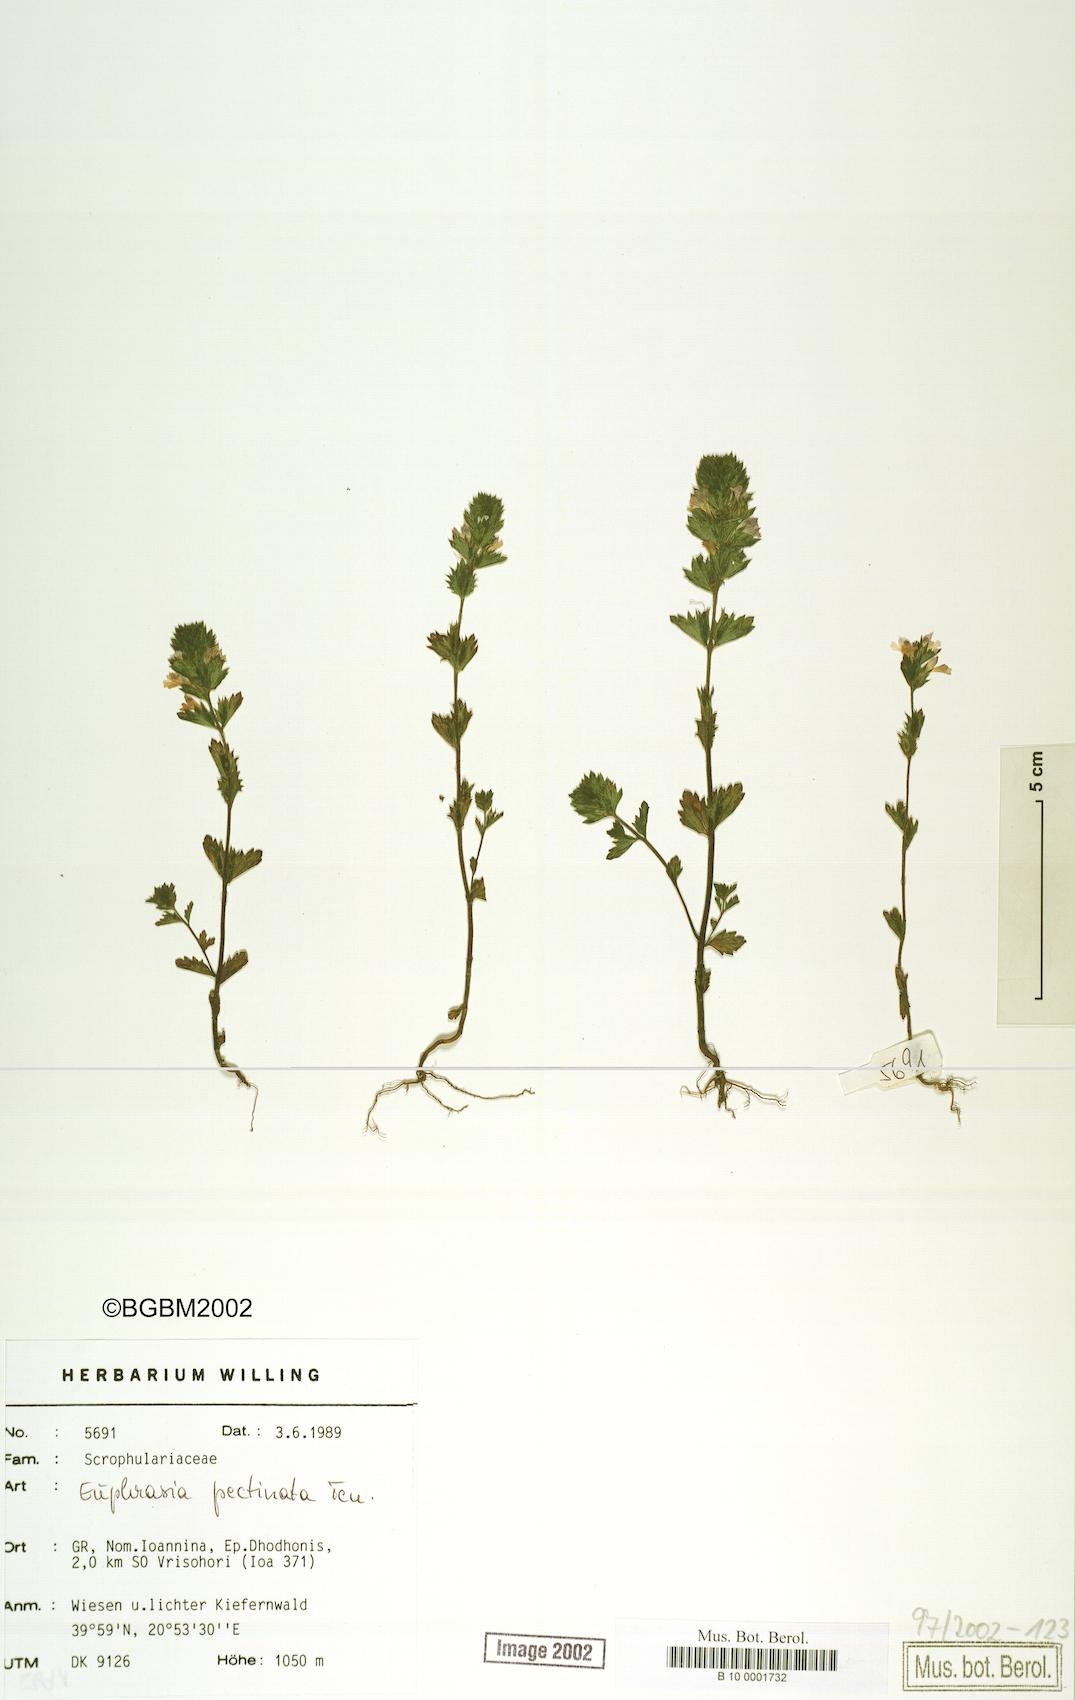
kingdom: Plantae
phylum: Tracheophyta
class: Magnoliopsida
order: Lamiales
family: Orobanchaceae
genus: Euphrasia
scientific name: Euphrasia pectinata
